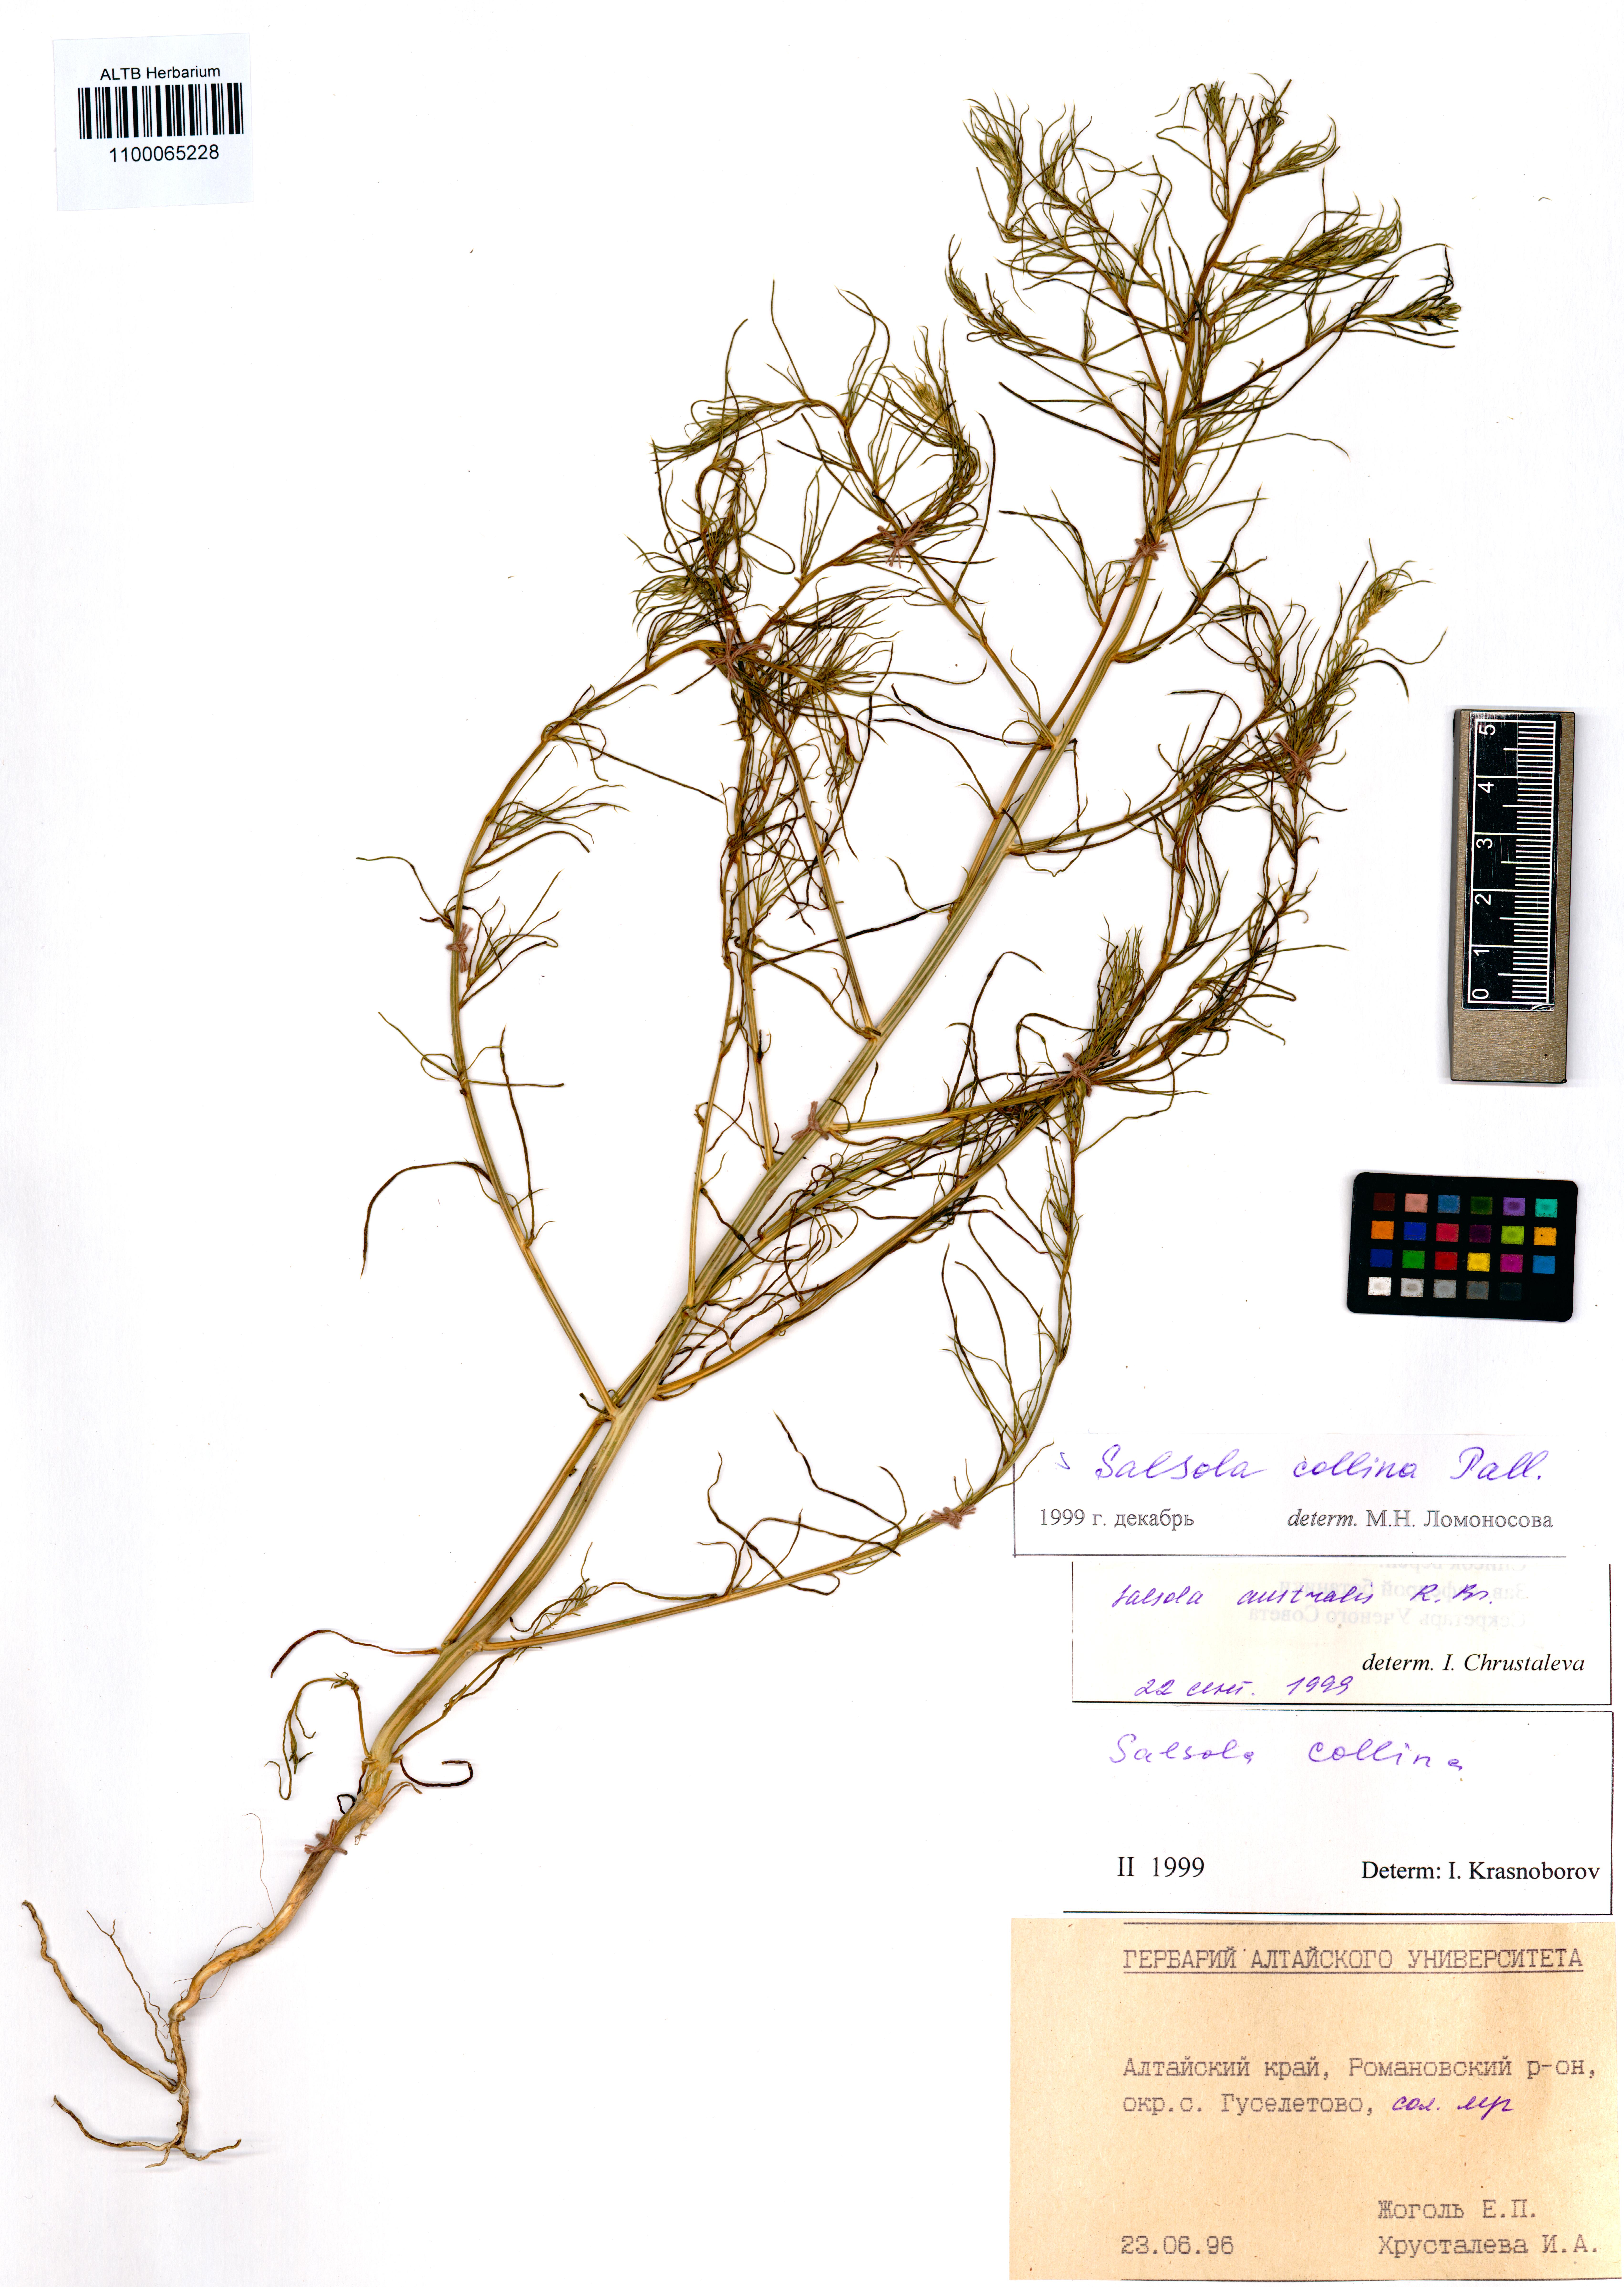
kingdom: Plantae
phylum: Tracheophyta
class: Magnoliopsida
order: Caryophyllales
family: Amaranthaceae
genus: Salsola
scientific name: Salsola collina
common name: Tumbleweed
